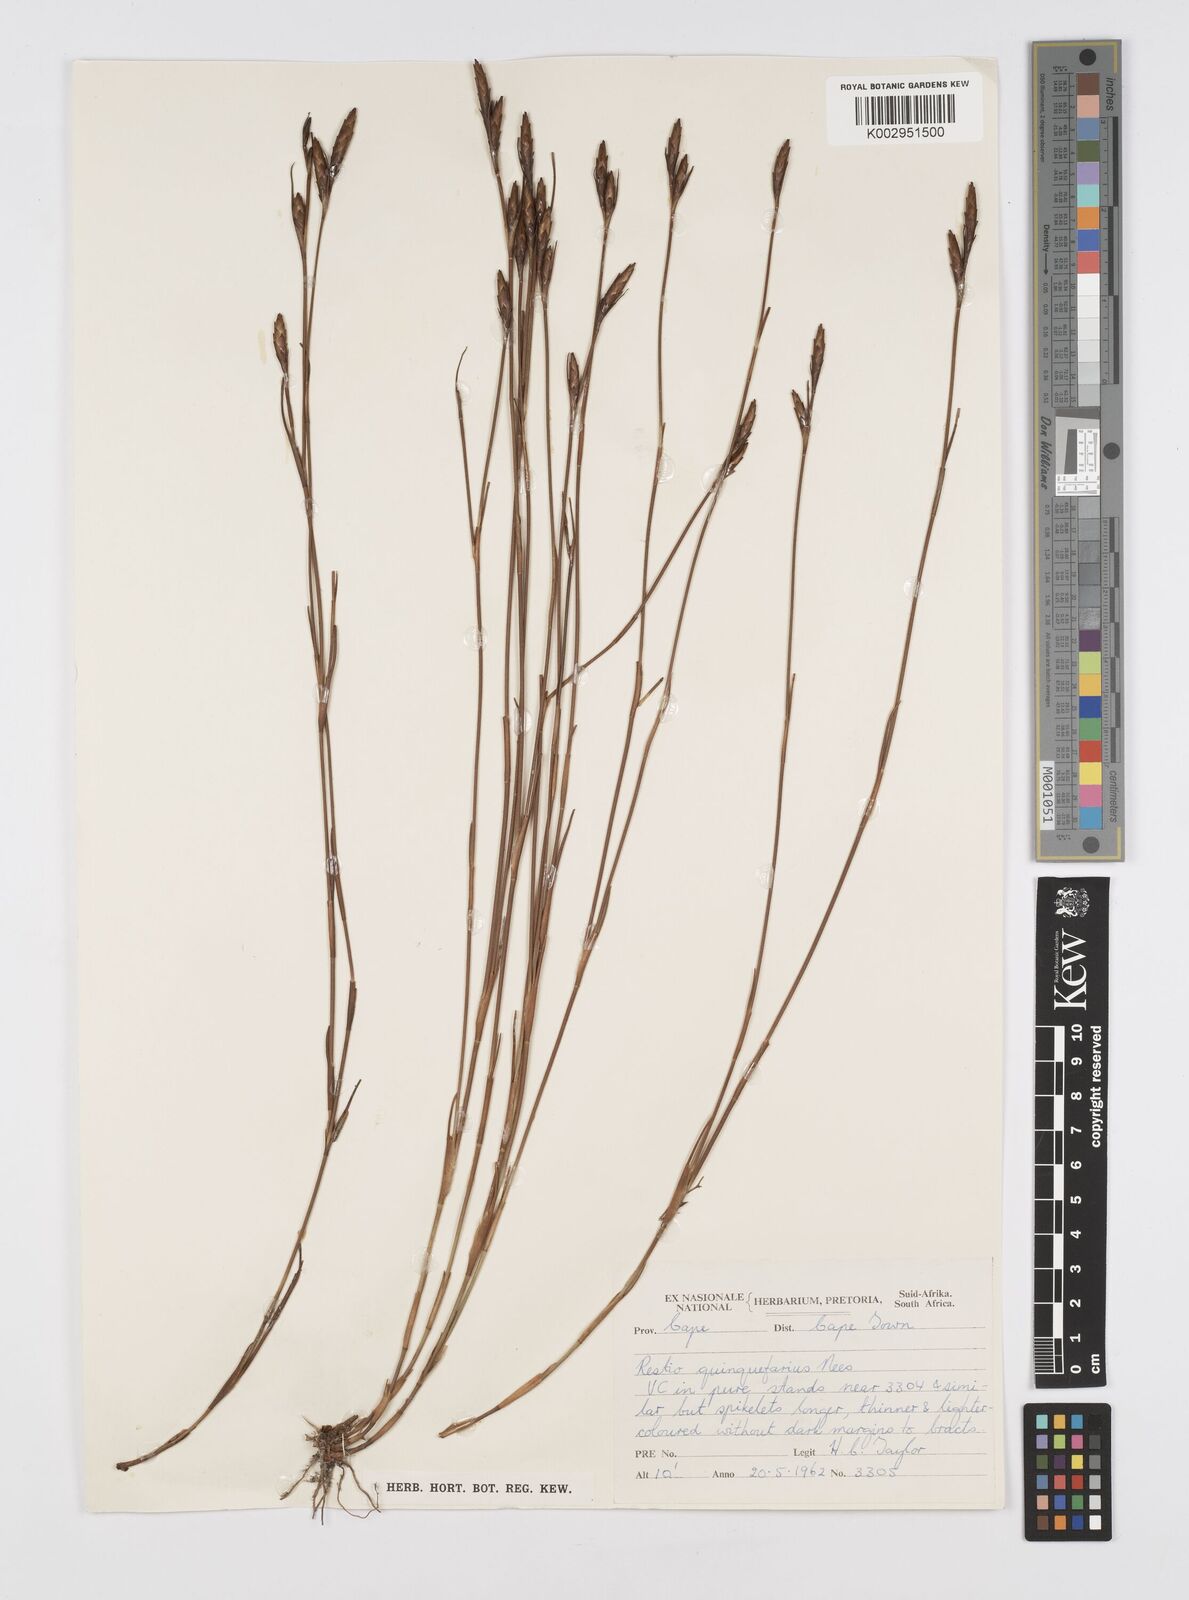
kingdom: Plantae
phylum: Tracheophyta
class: Liliopsida
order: Poales
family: Restionaceae
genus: Restio
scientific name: Restio quinquefarius
